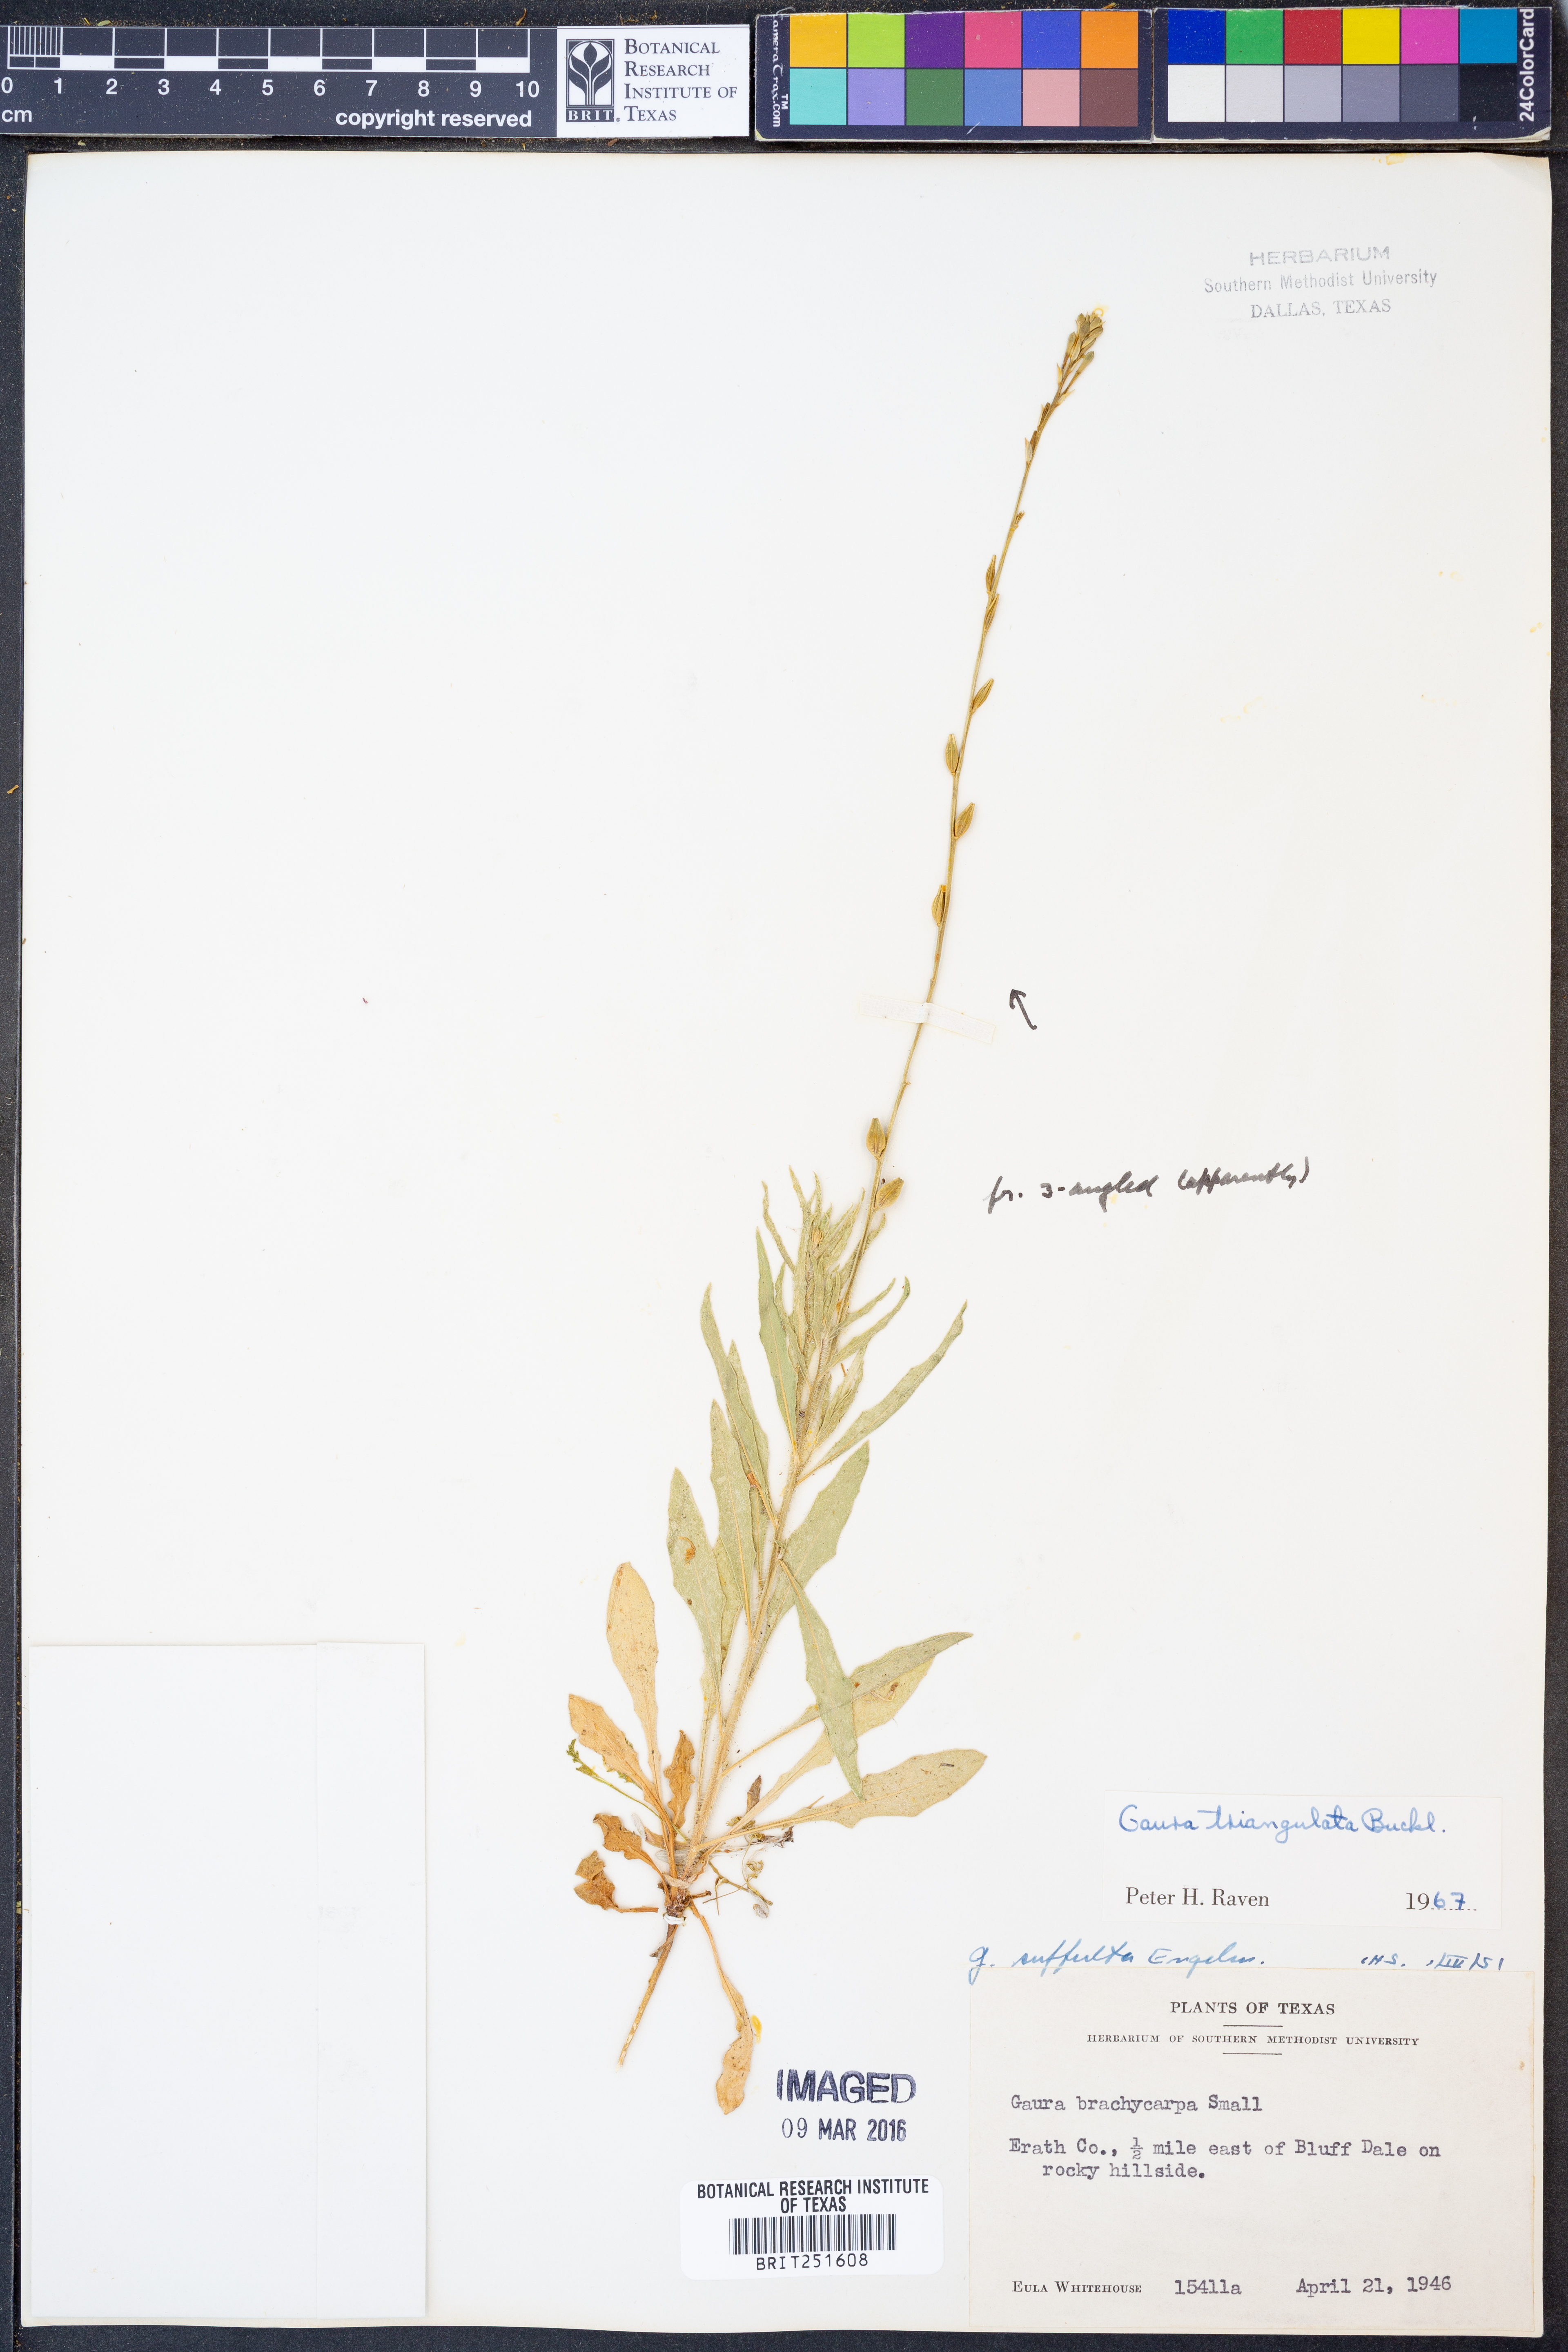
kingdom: Plantae
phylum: Tracheophyta
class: Magnoliopsida
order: Myrtales
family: Onagraceae
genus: Oenothera
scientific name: Oenothera triangulata
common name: Prairie beeblossom
